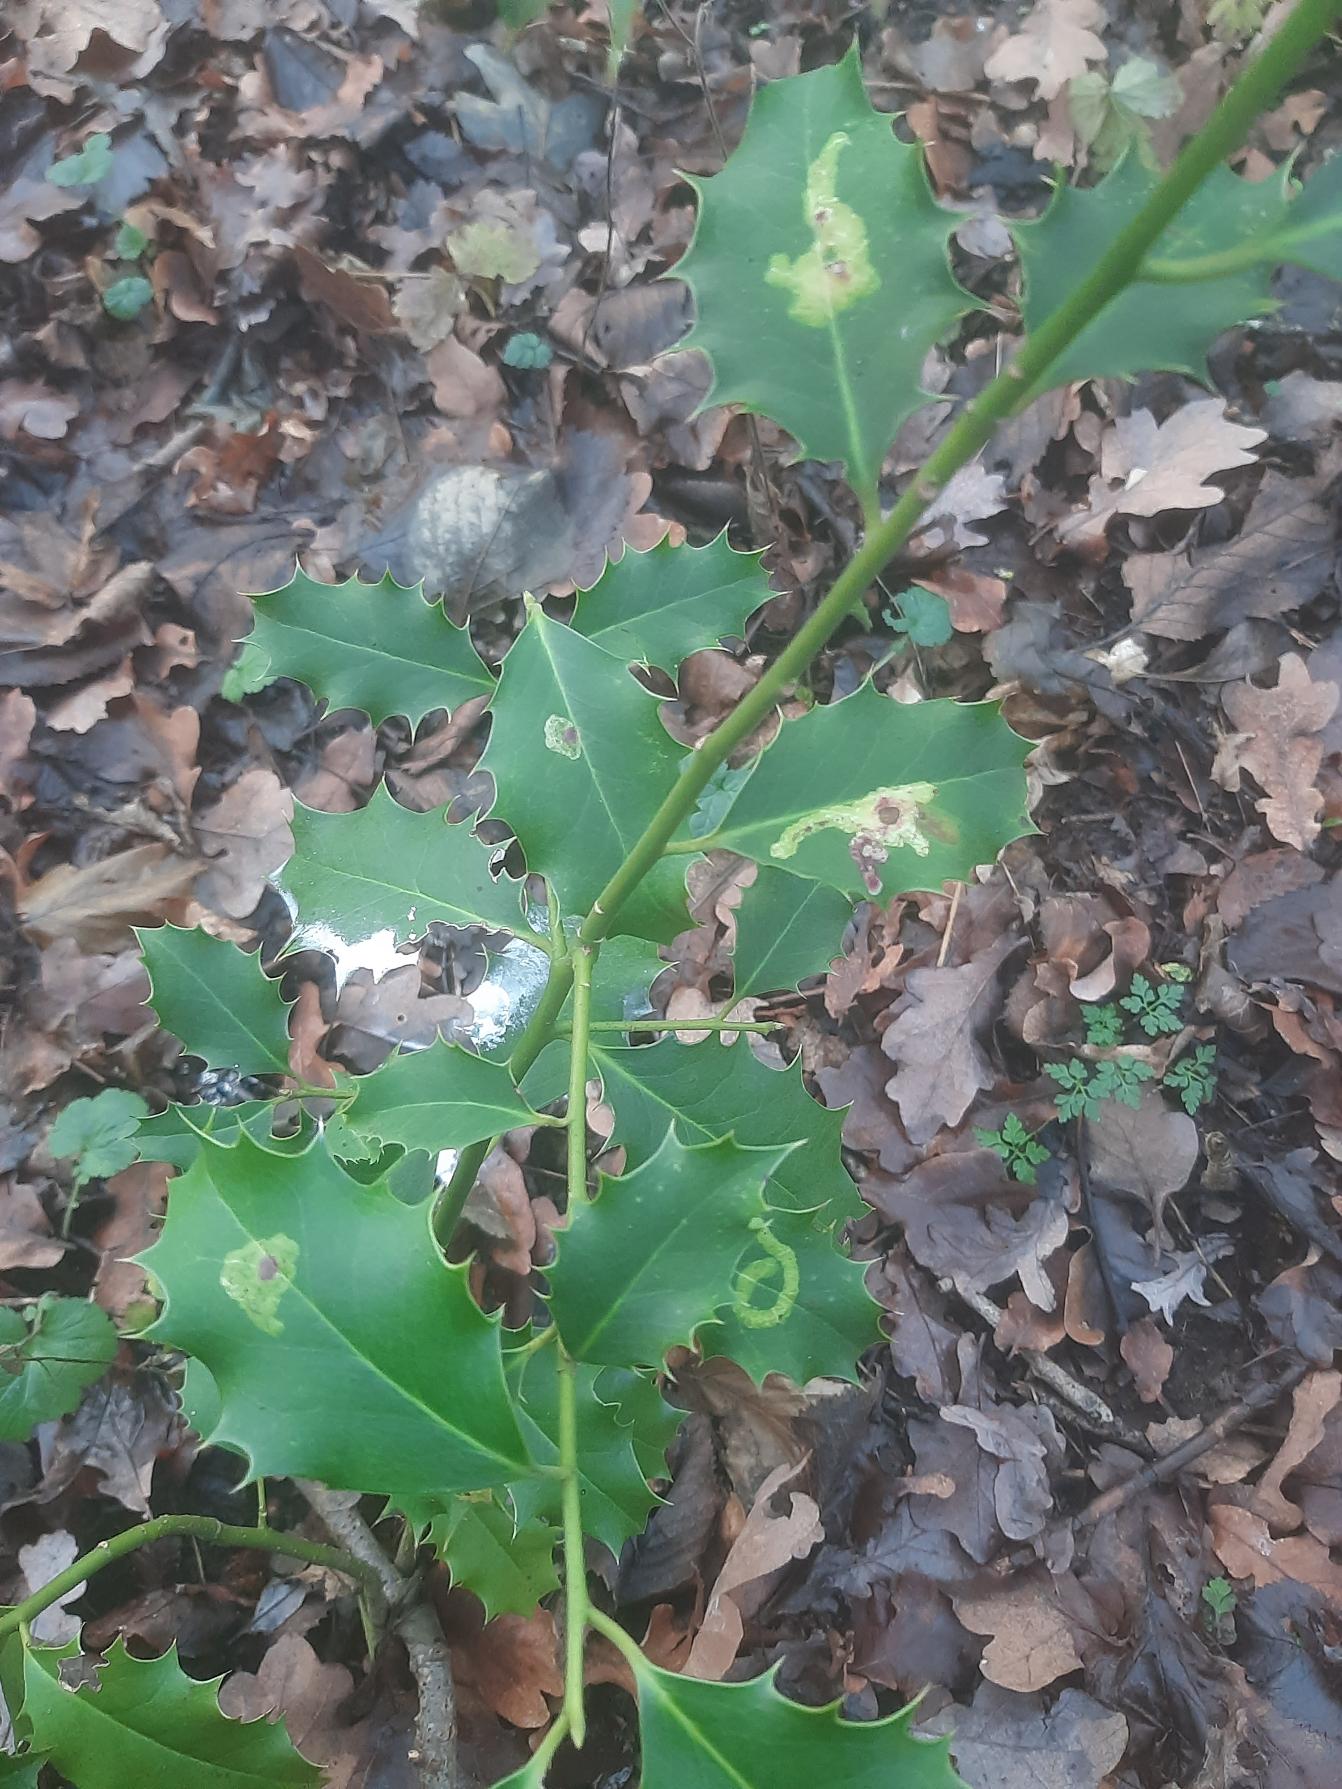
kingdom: Plantae
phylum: Tracheophyta
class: Magnoliopsida
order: Aquifoliales
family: Aquifoliaceae
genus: Ilex
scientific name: Ilex aquifolium
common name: Kristtorn
